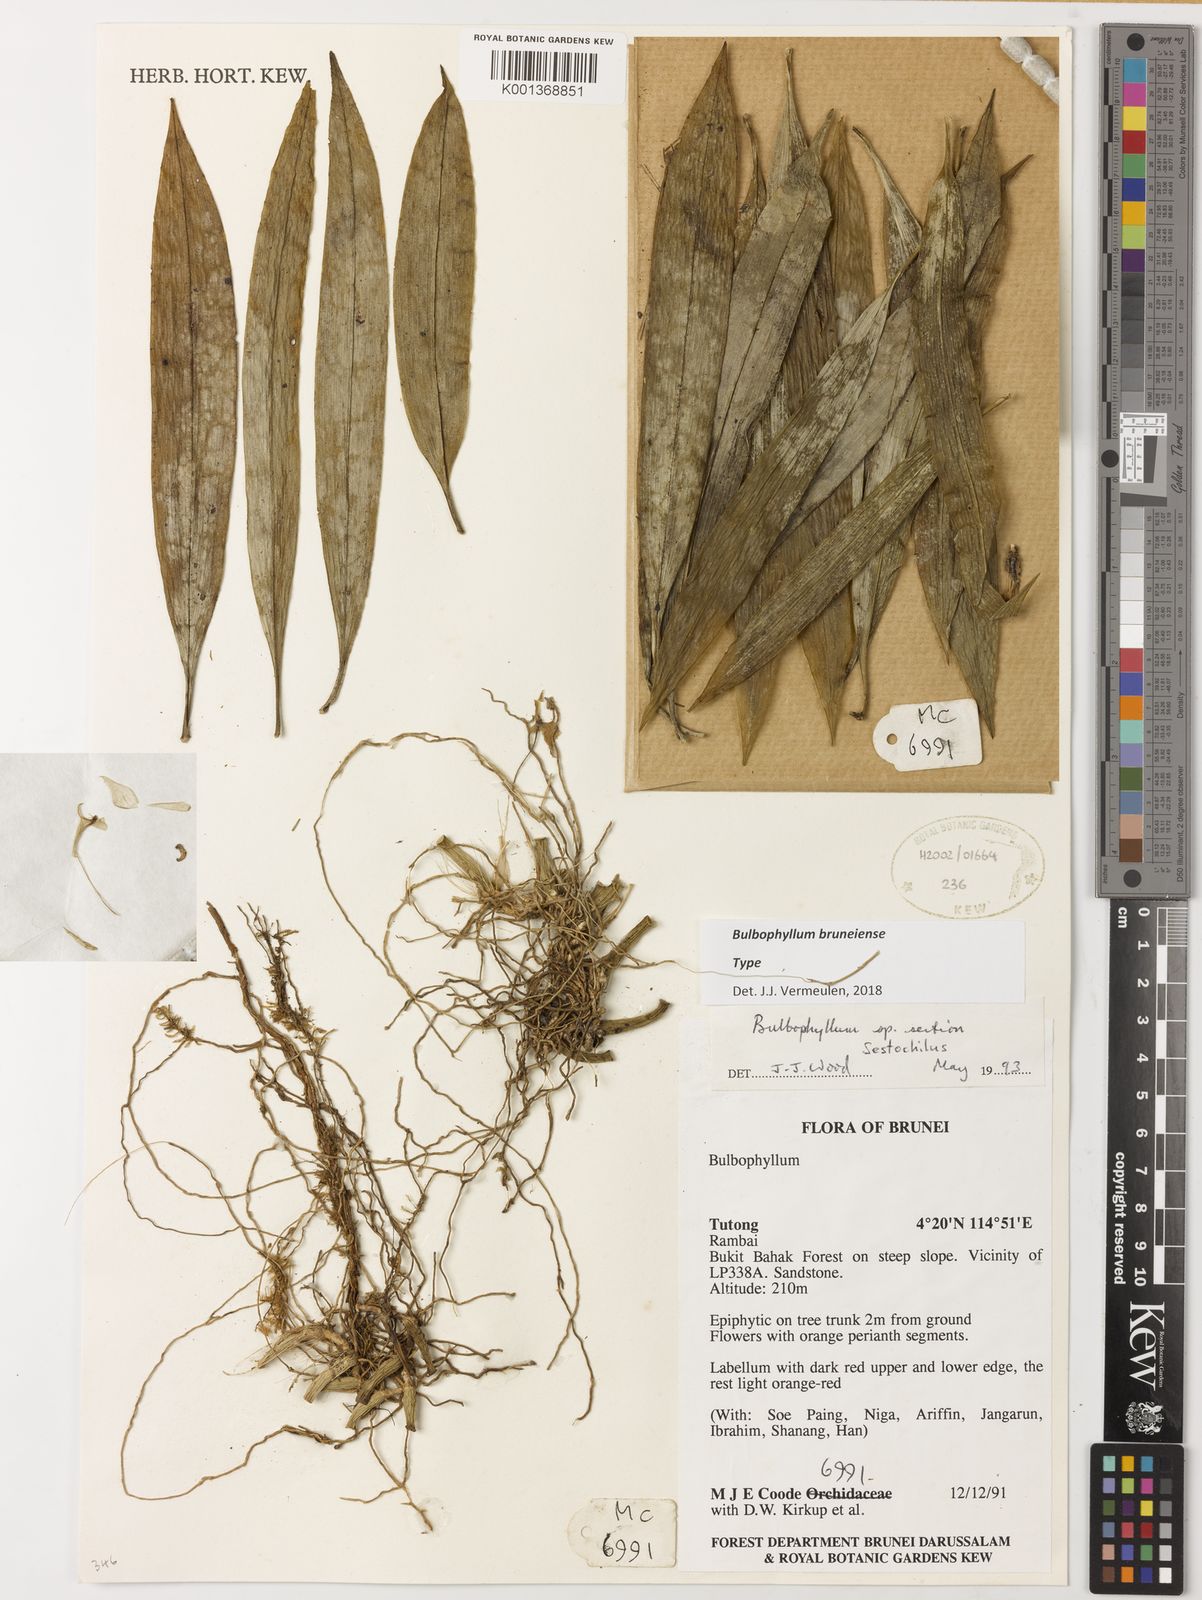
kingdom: Plantae
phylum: Tracheophyta
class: Liliopsida
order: Asparagales
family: Orchidaceae
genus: Bulbophyllum
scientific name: Bulbophyllum bruneiense
